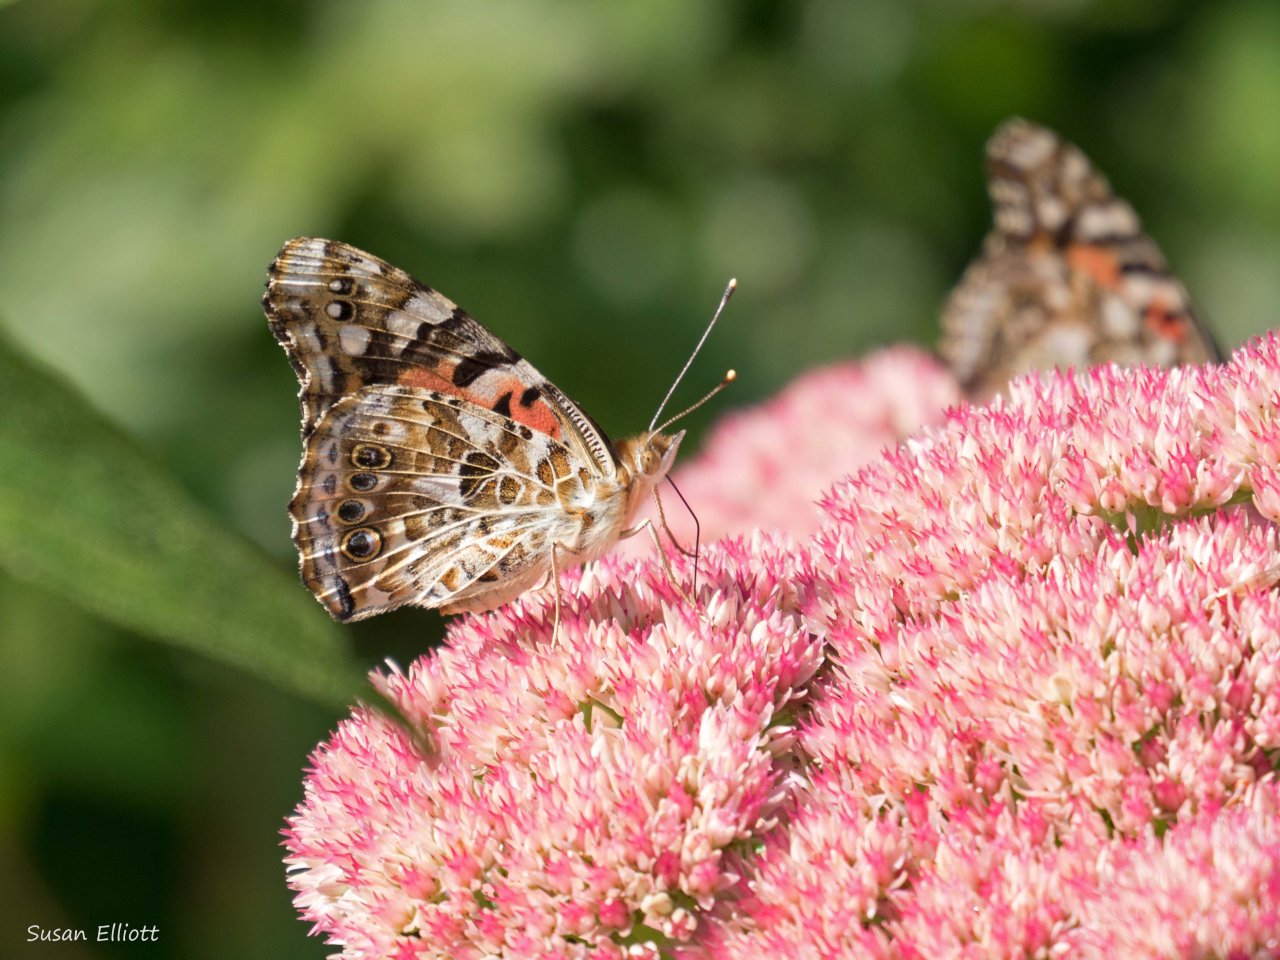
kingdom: Animalia
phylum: Arthropoda
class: Insecta
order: Lepidoptera
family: Nymphalidae
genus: Vanessa
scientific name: Vanessa cardui
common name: Painted Lady
